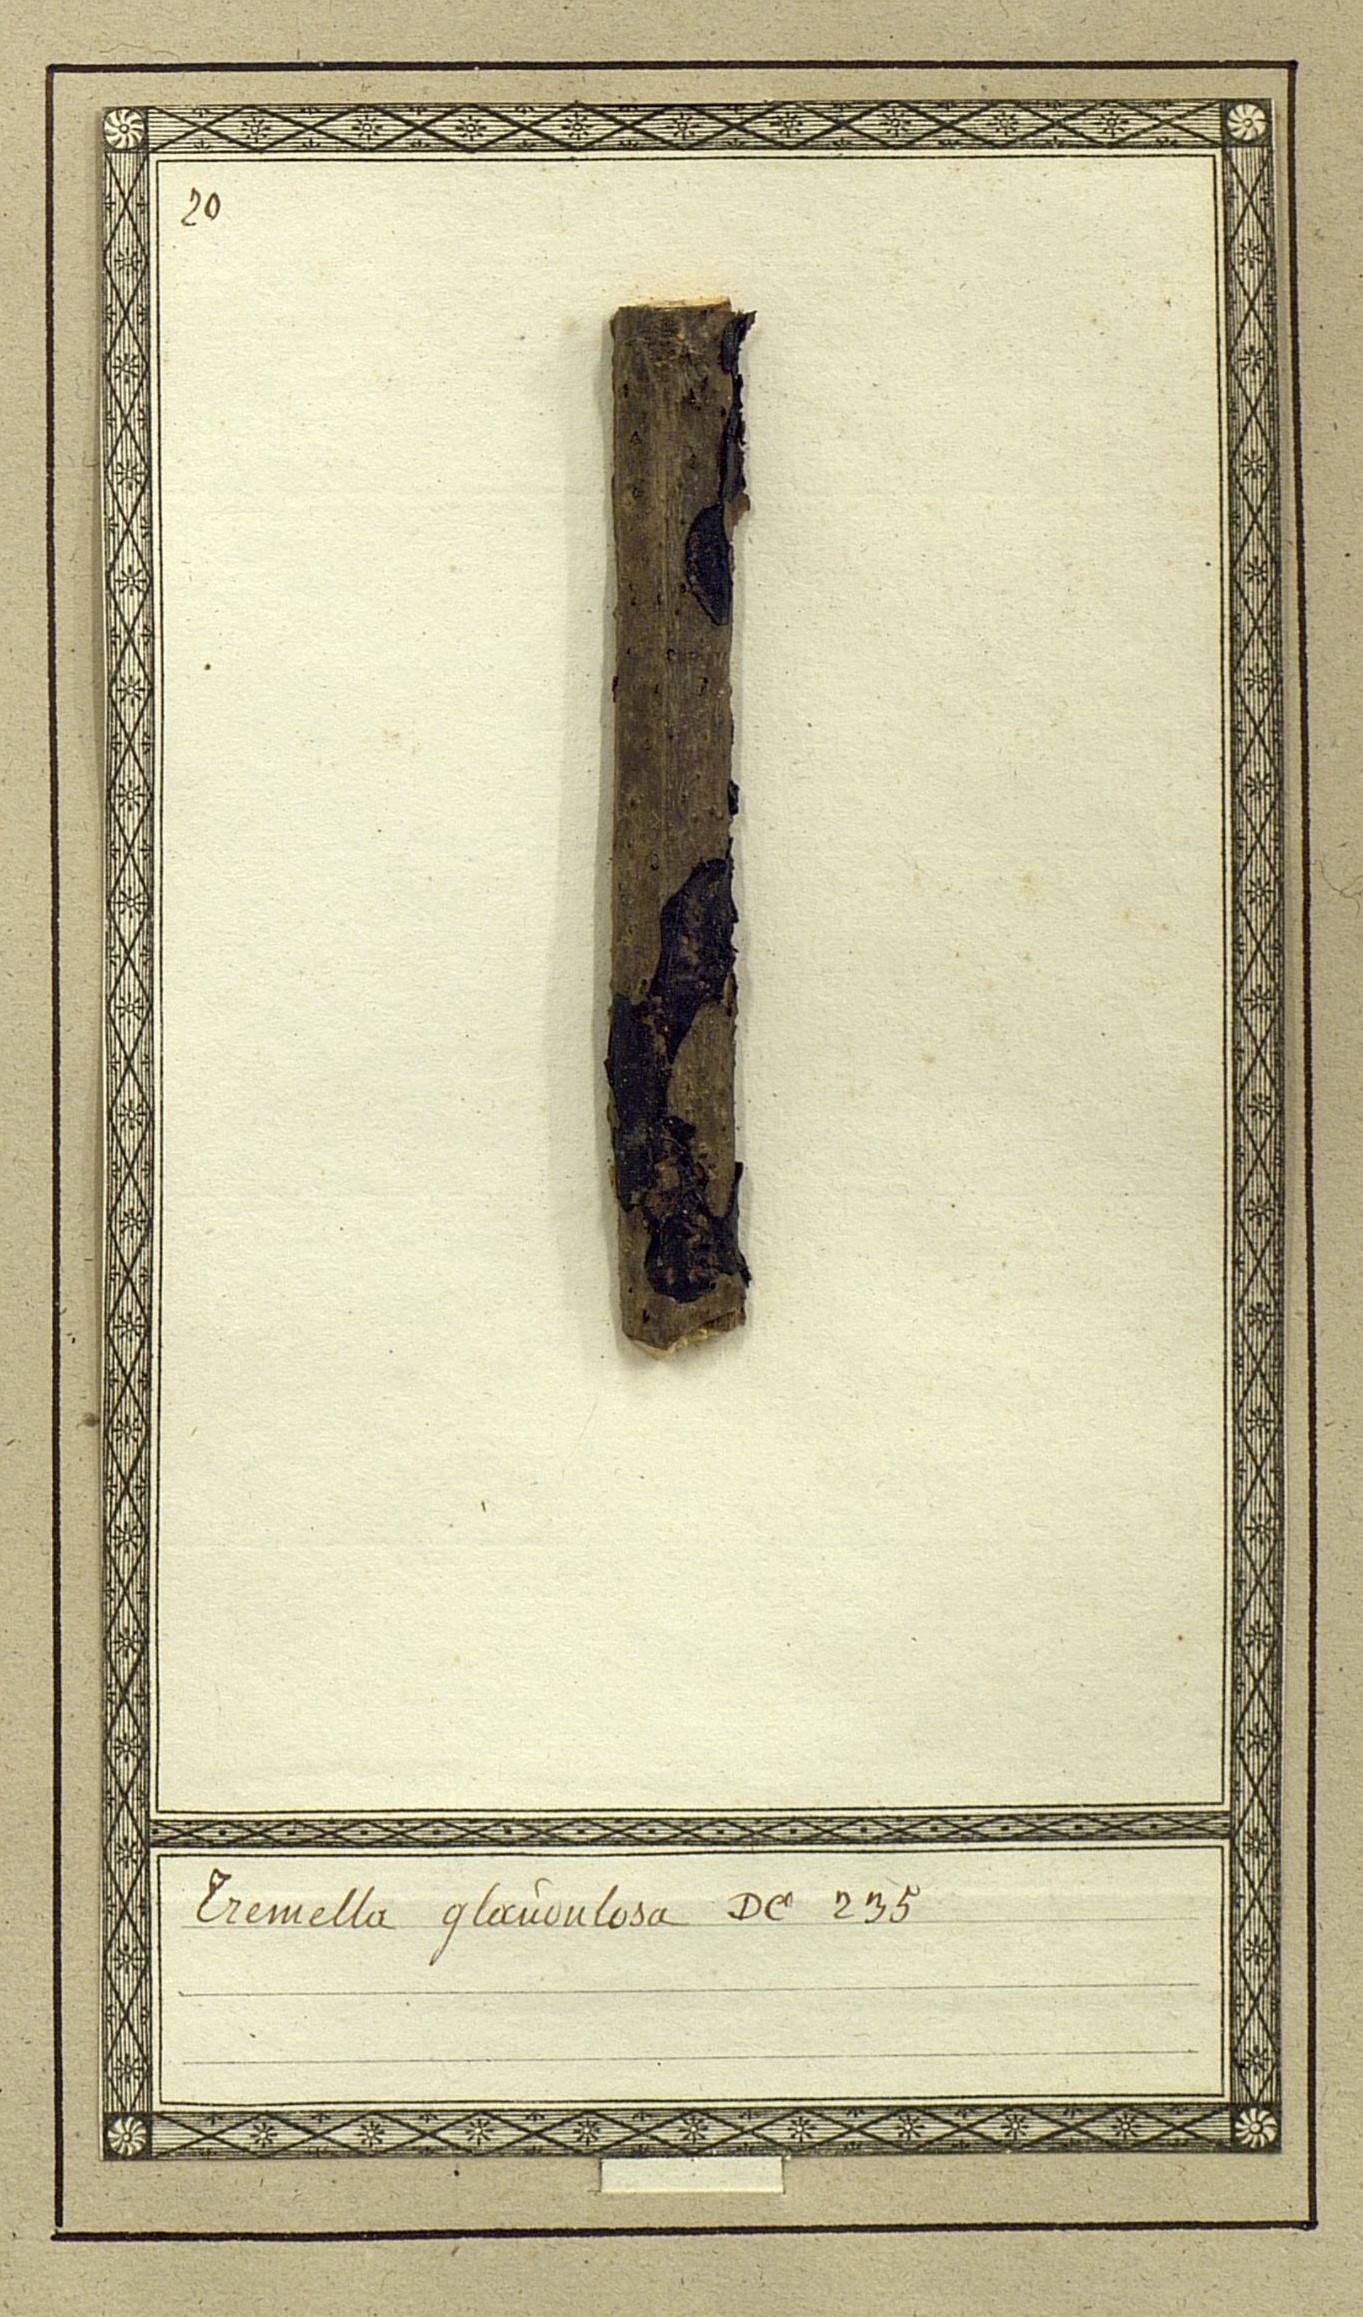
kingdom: Fungi
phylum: Basidiomycota
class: Agaricomycetes
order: Auriculariales
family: Auriculariaceae
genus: Exidia
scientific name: Exidia glandulosa
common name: Witches' butter
